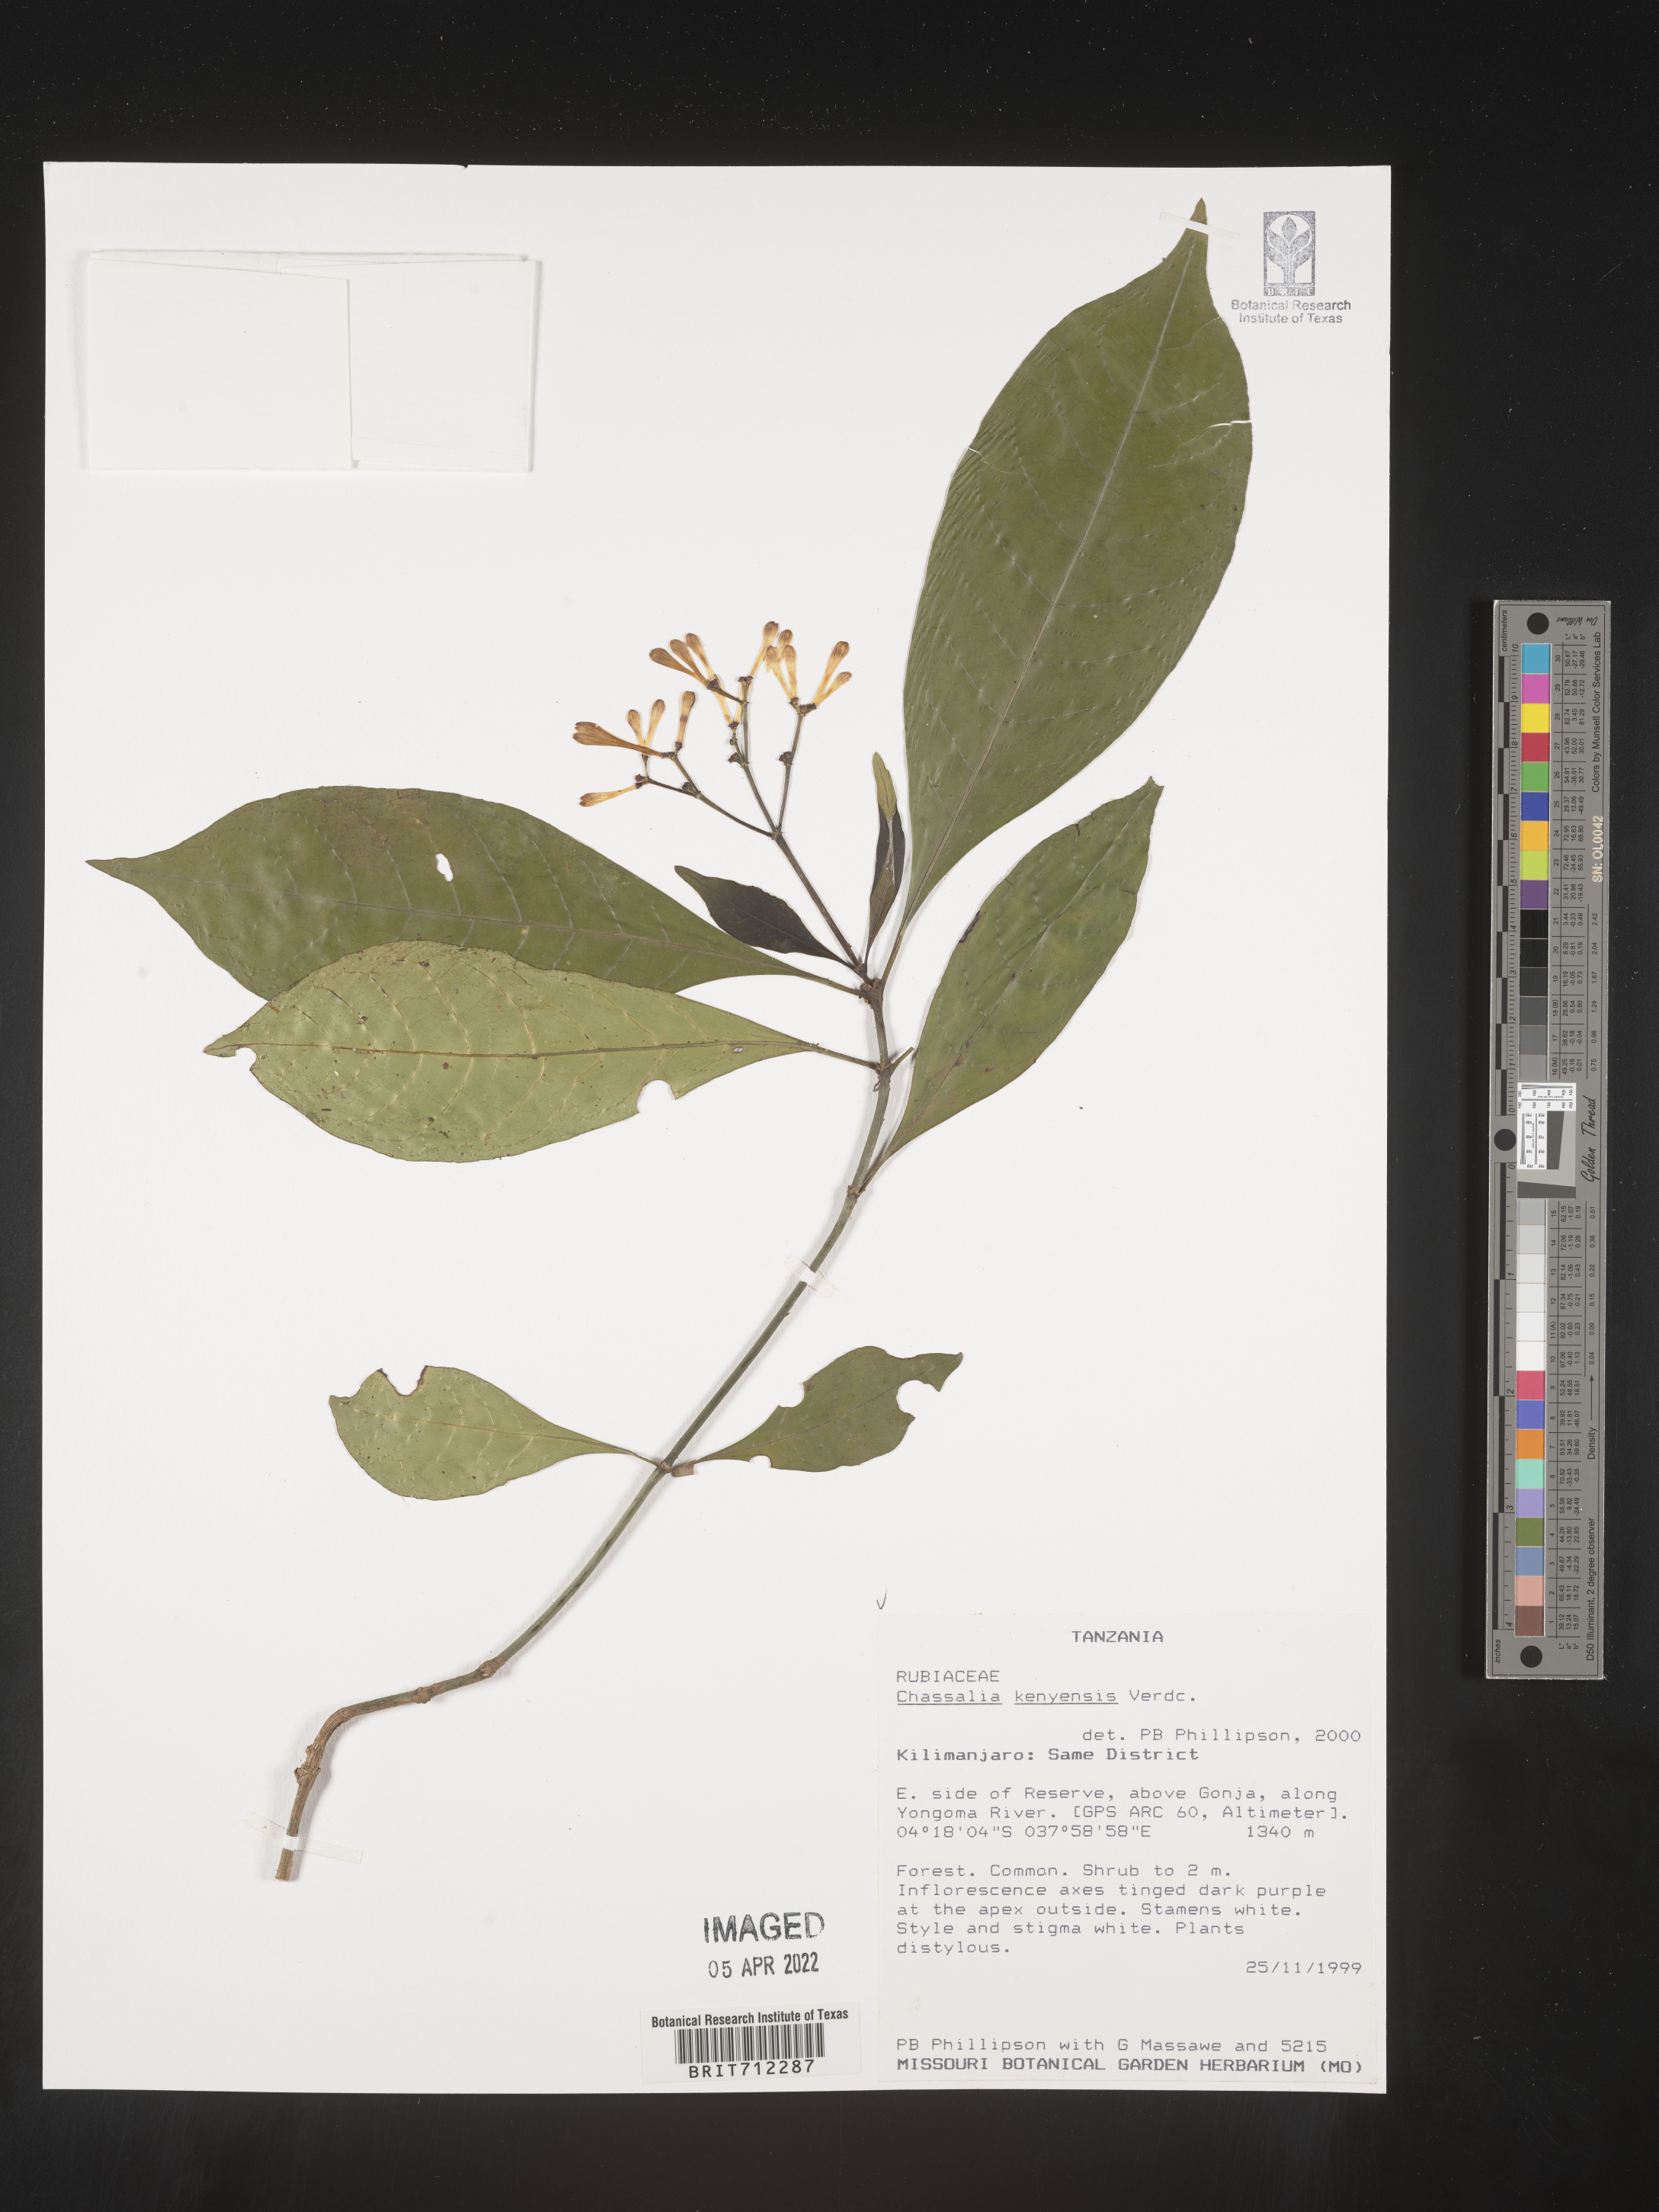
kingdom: Plantae
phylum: Tracheophyta
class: Magnoliopsida
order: Gentianales
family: Rubiaceae
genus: Chassalia
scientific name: Chassalia
